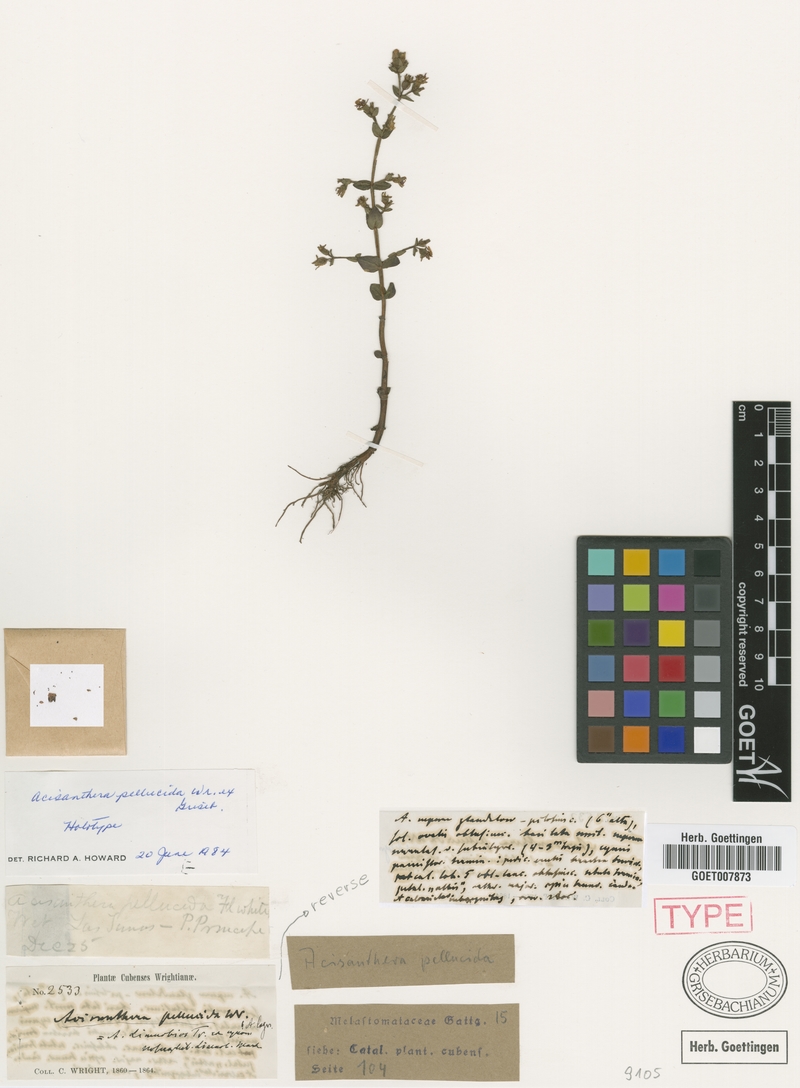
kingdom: Plantae
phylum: Tracheophyta
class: Magnoliopsida
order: Myrtales
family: Melastomataceae
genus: Noterophila
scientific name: Noterophila limnobios
